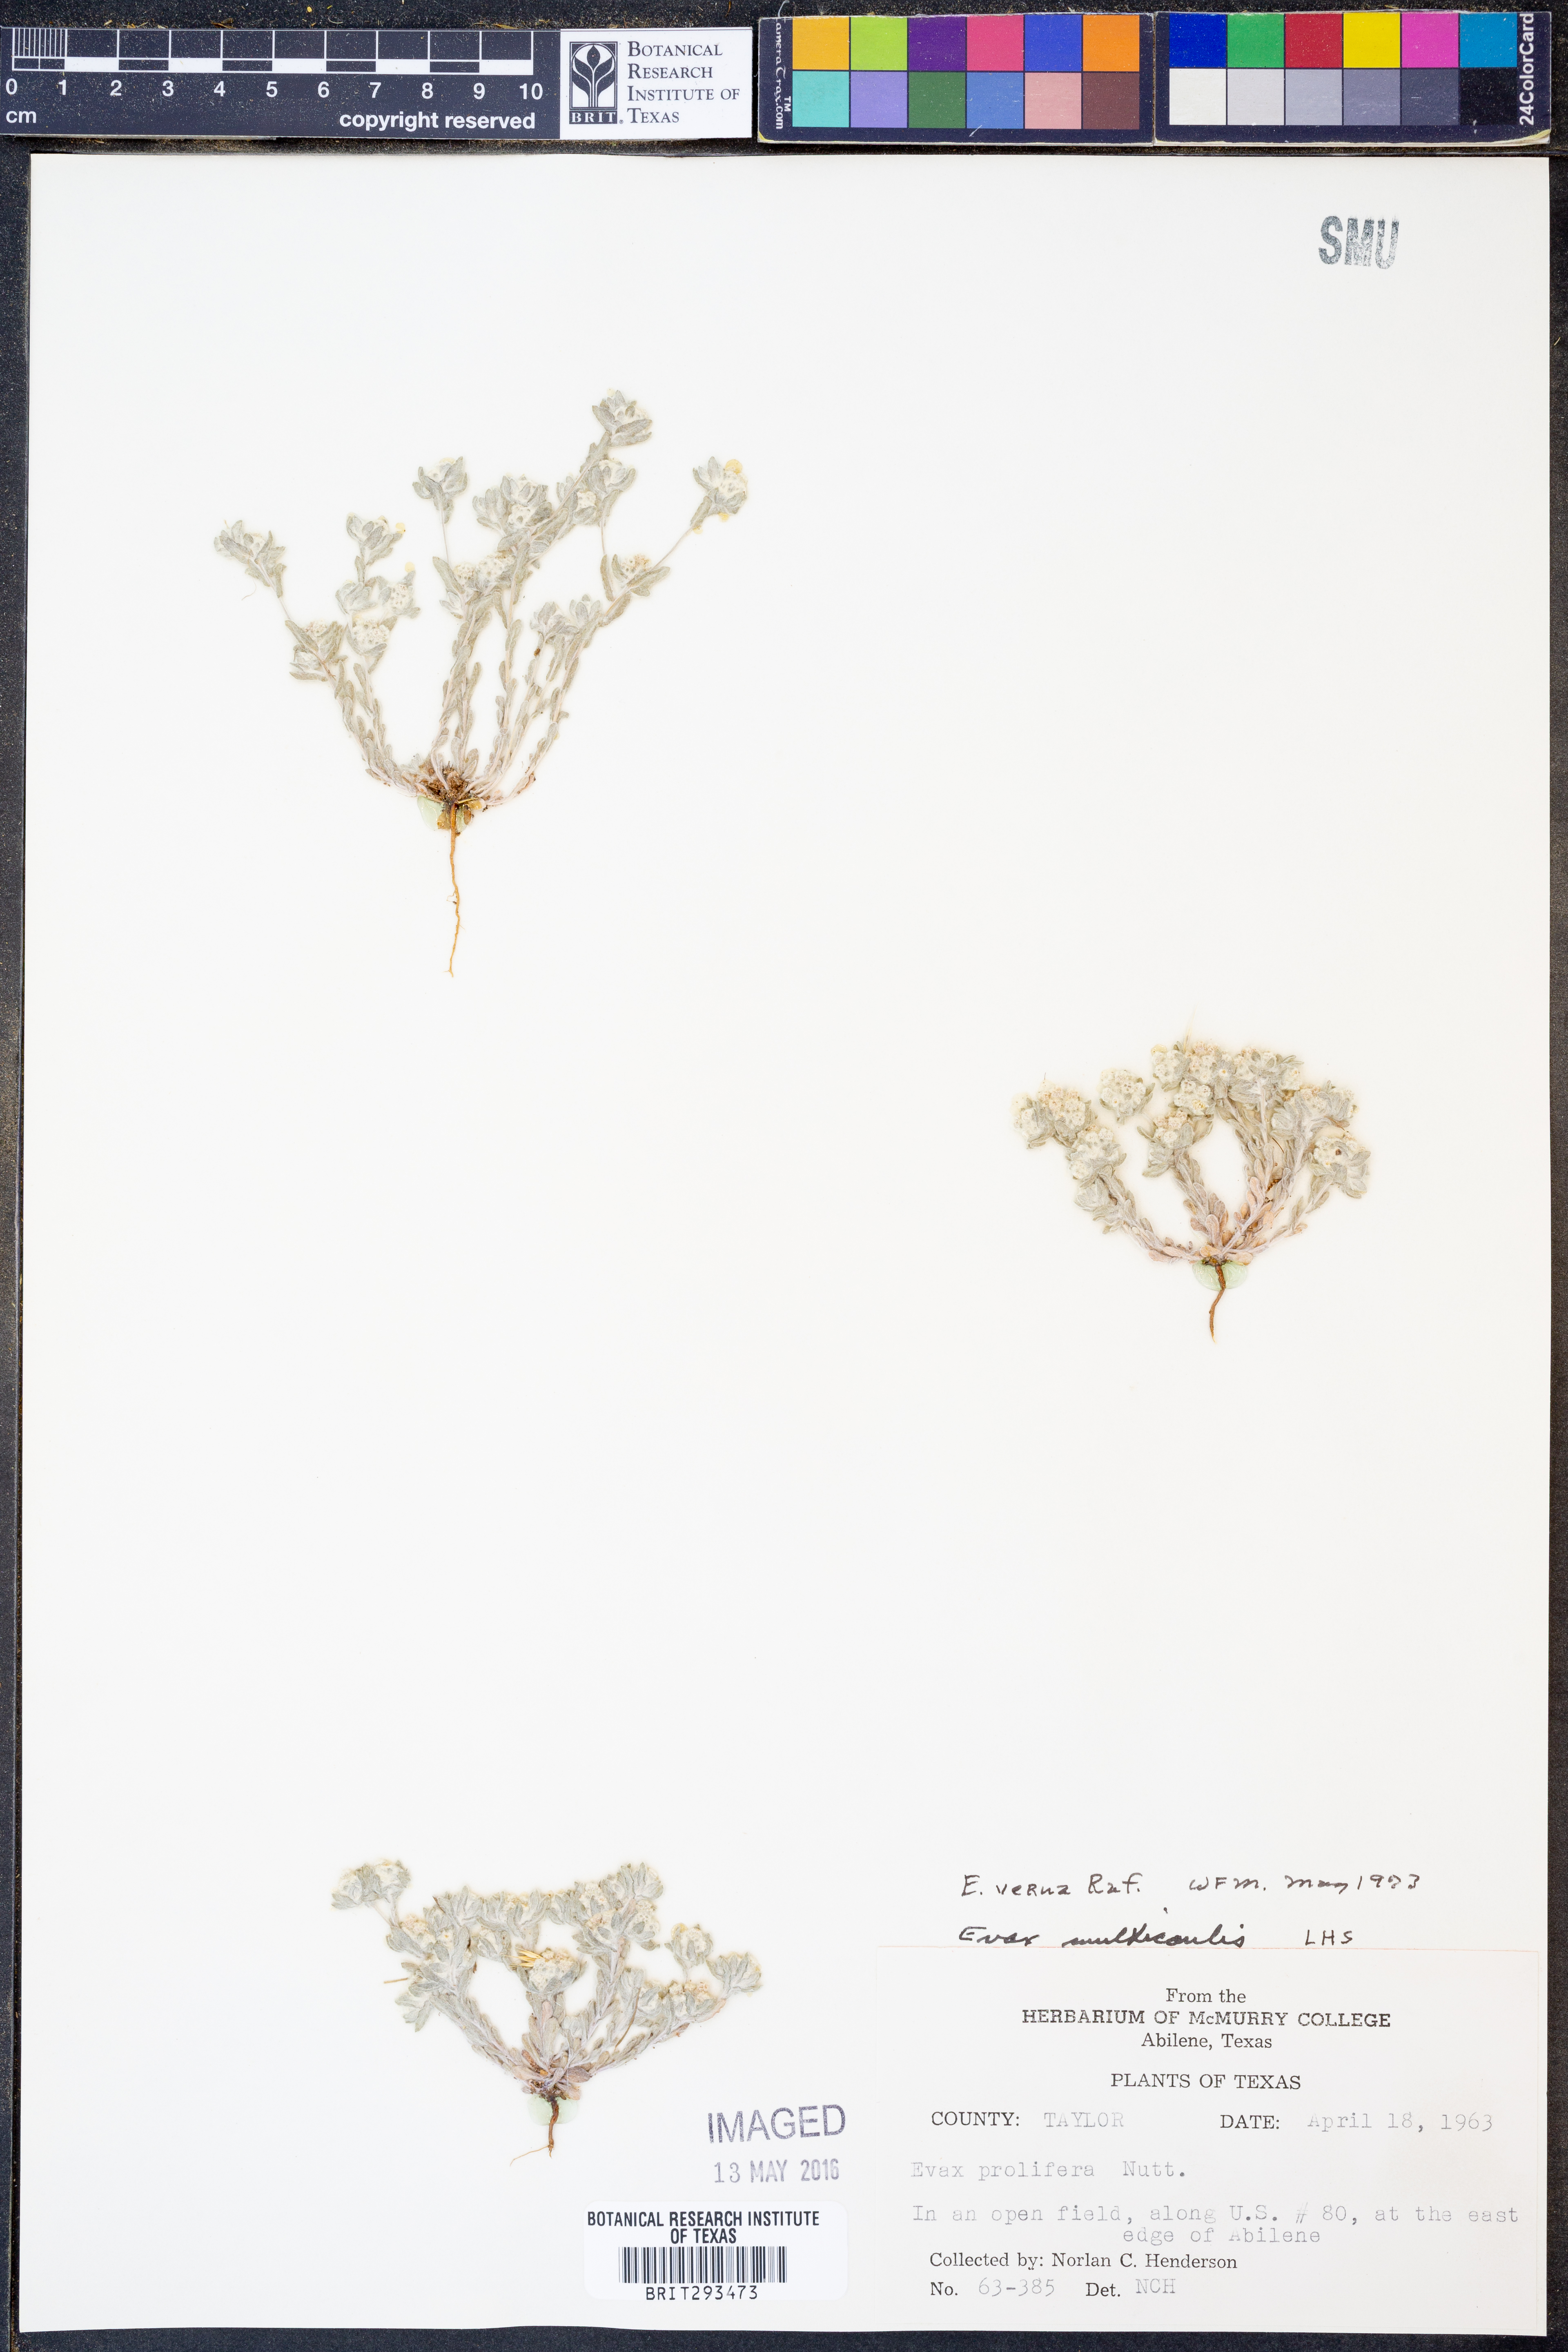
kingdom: Plantae
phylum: Tracheophyta
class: Magnoliopsida
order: Asterales
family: Asteraceae
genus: Diaperia
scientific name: Diaperia verna
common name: Many-stem rabbit-tobacco
